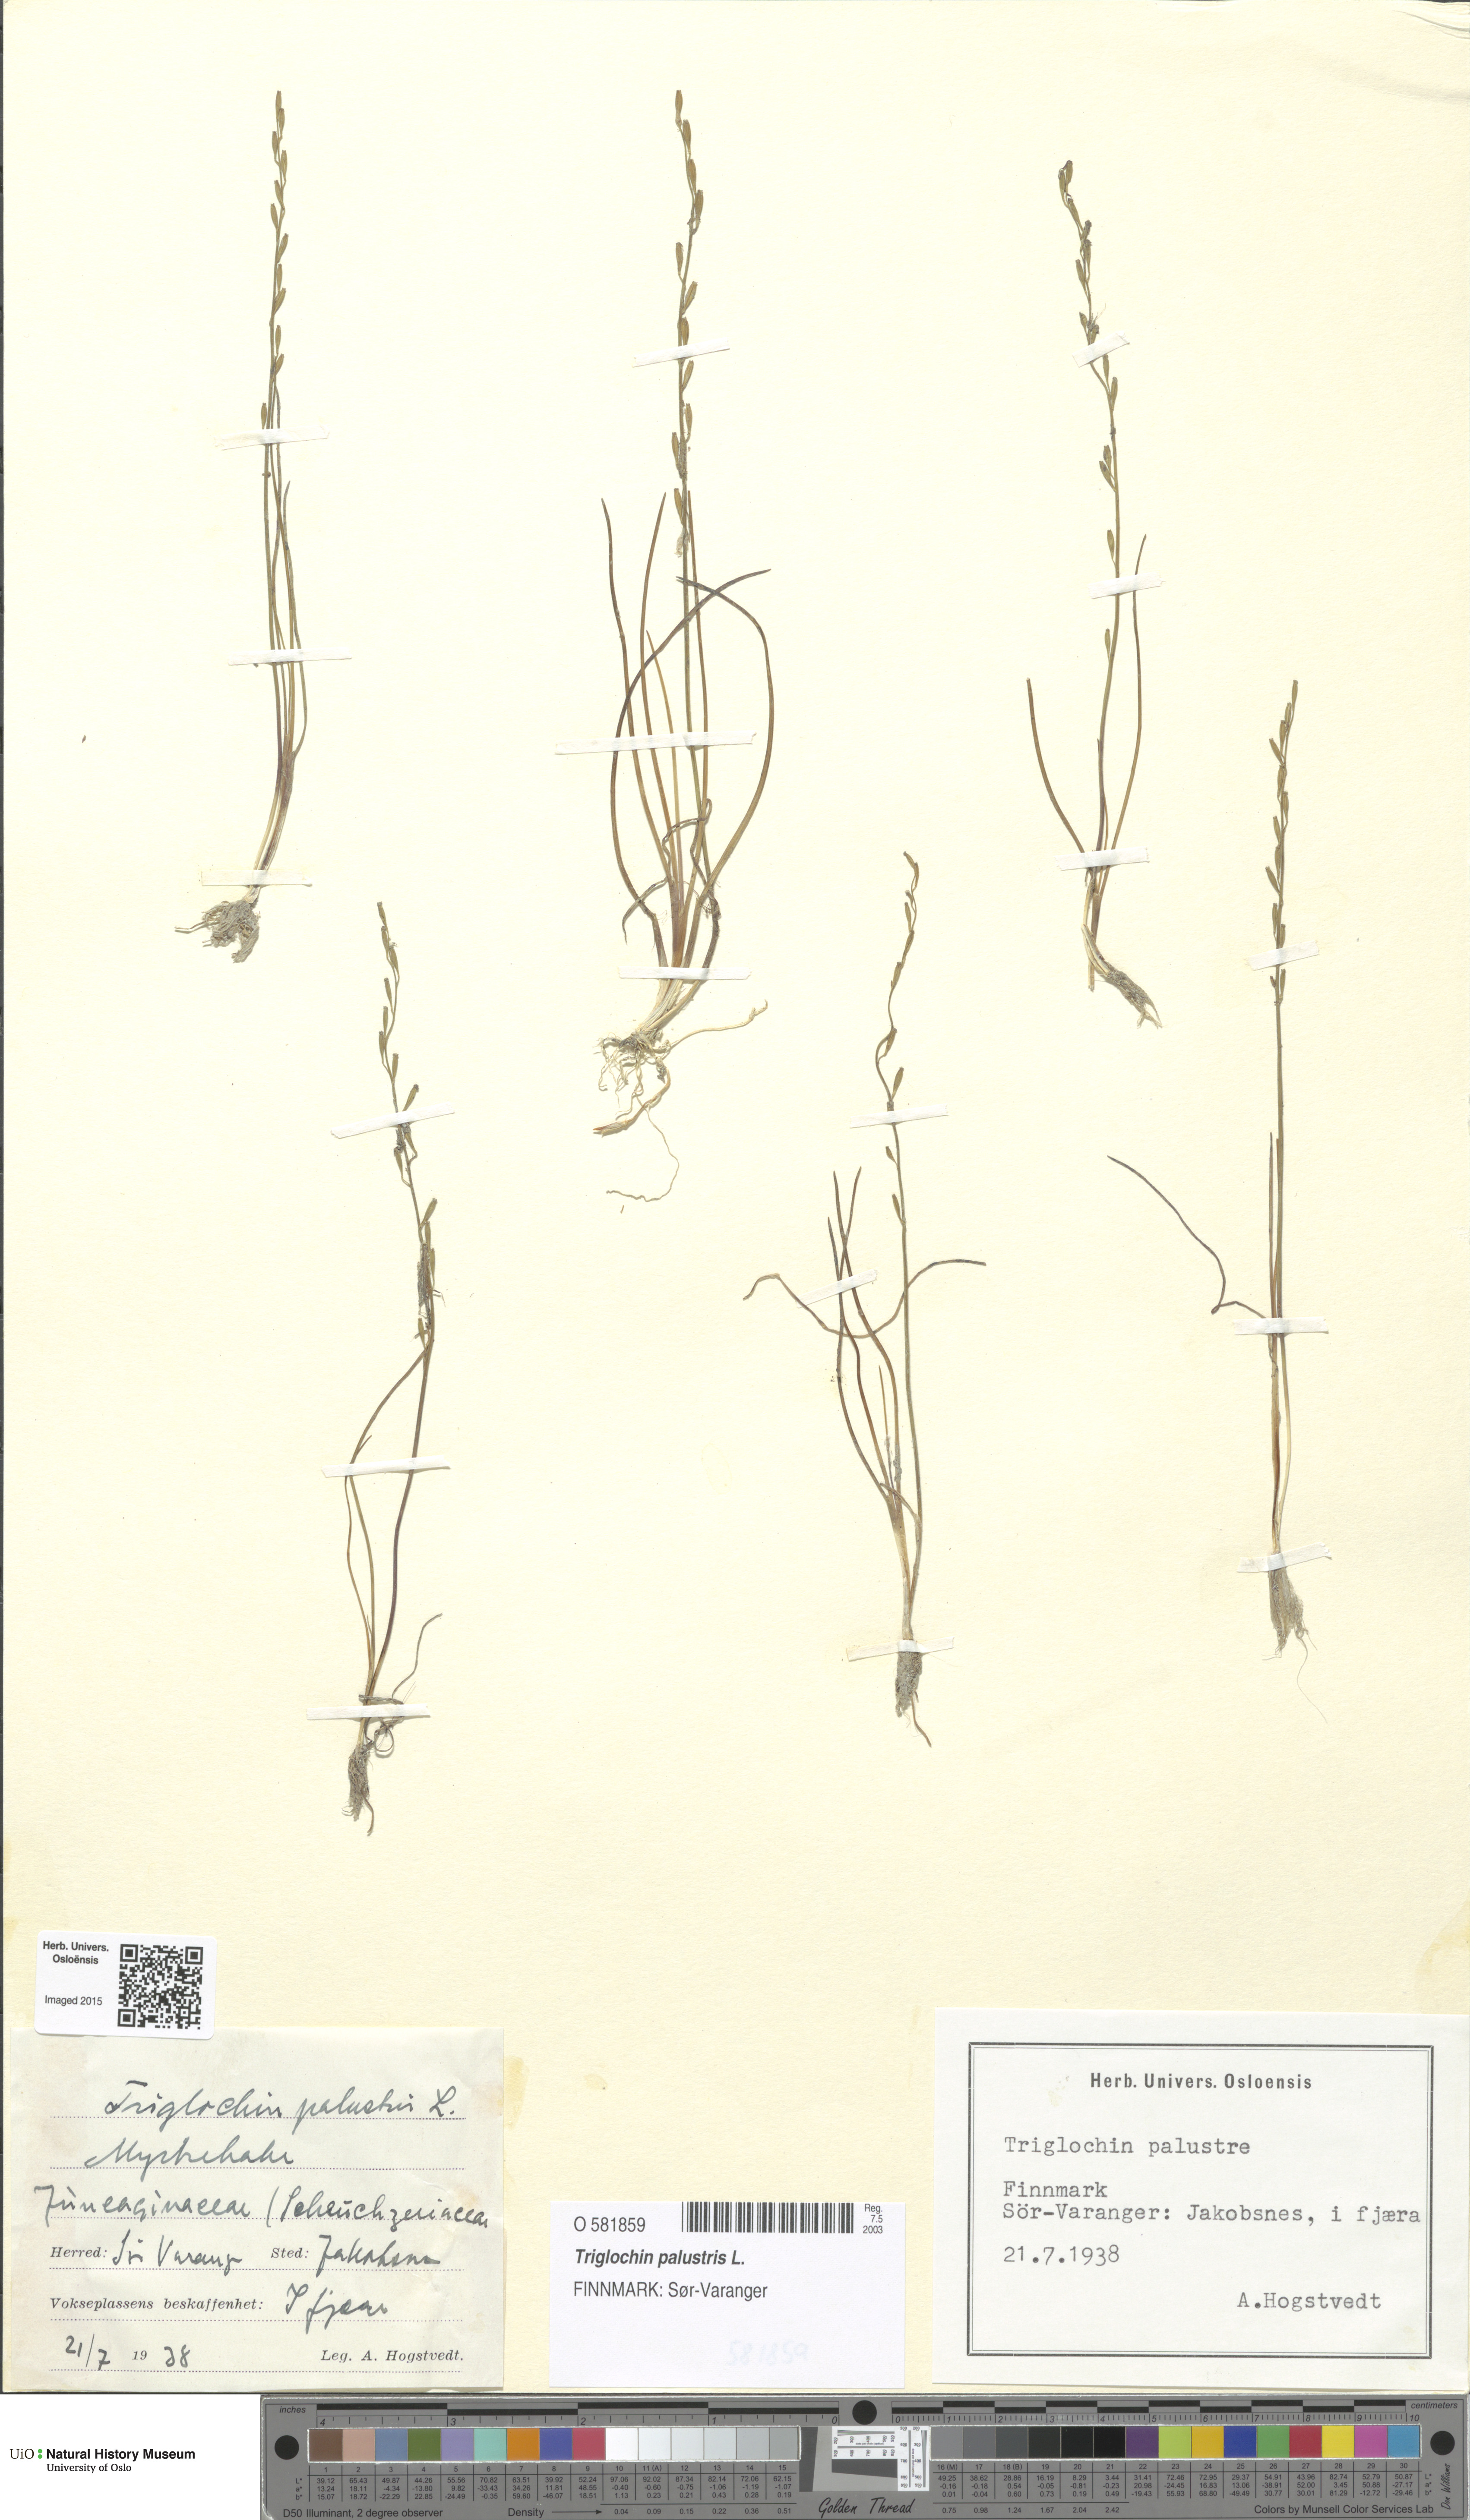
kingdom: Plantae
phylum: Tracheophyta
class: Liliopsida
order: Alismatales
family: Juncaginaceae
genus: Triglochin
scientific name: Triglochin palustris
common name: Marsh arrowgrass
